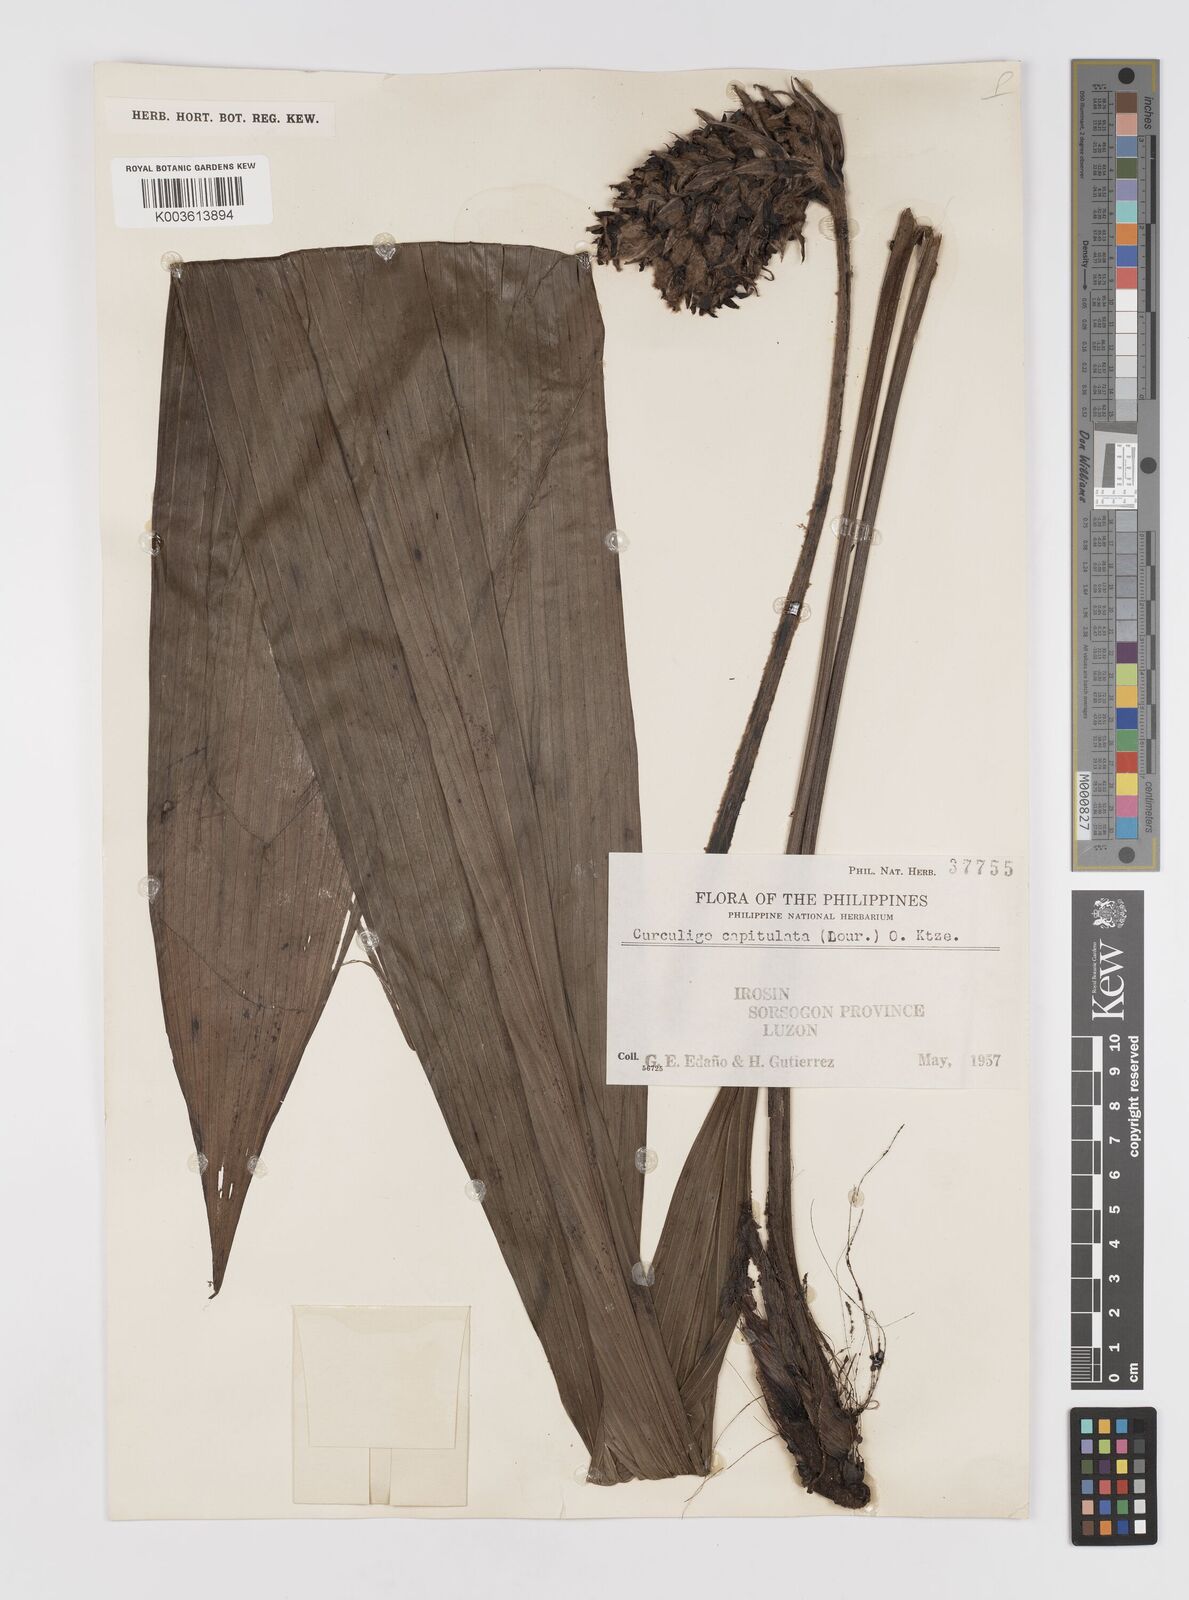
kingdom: Plantae
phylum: Tracheophyta
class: Liliopsida
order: Asparagales
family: Hypoxidaceae
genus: Curculigo
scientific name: Curculigo capitulata
